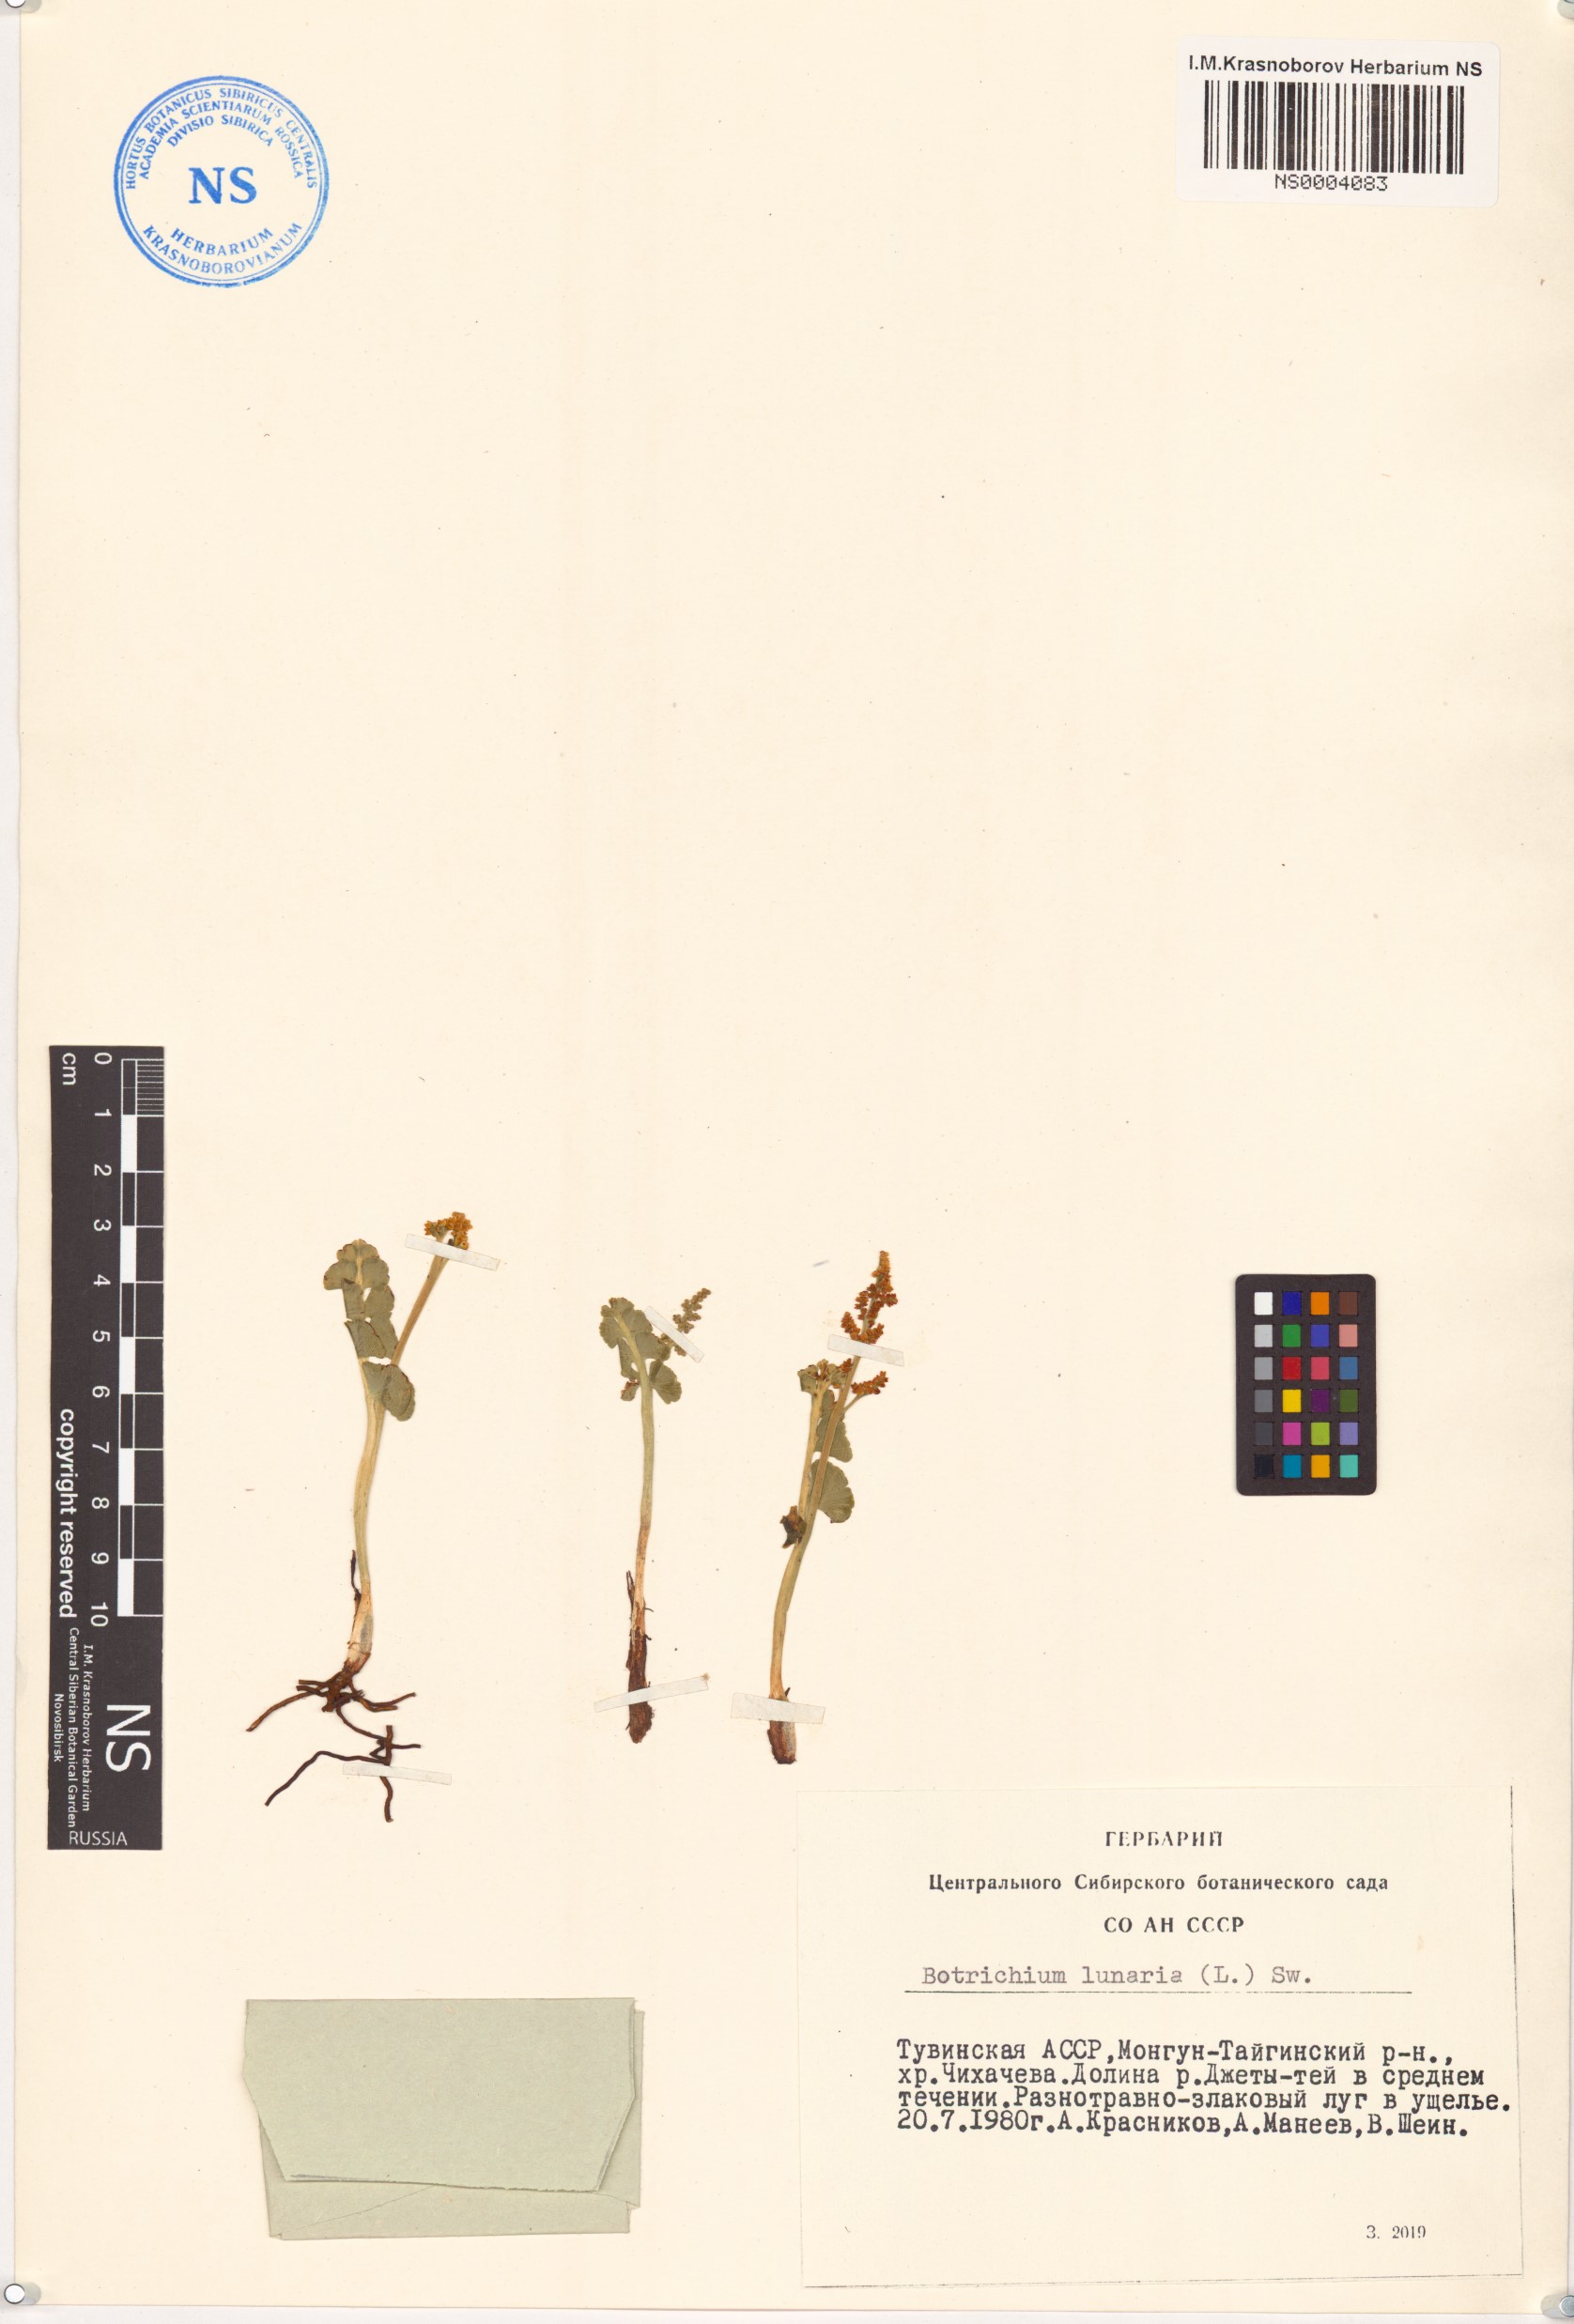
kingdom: Plantae
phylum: Tracheophyta
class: Polypodiopsida
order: Ophioglossales
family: Ophioglossaceae
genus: Botrychium
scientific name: Botrychium lunaria
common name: Moonwort
